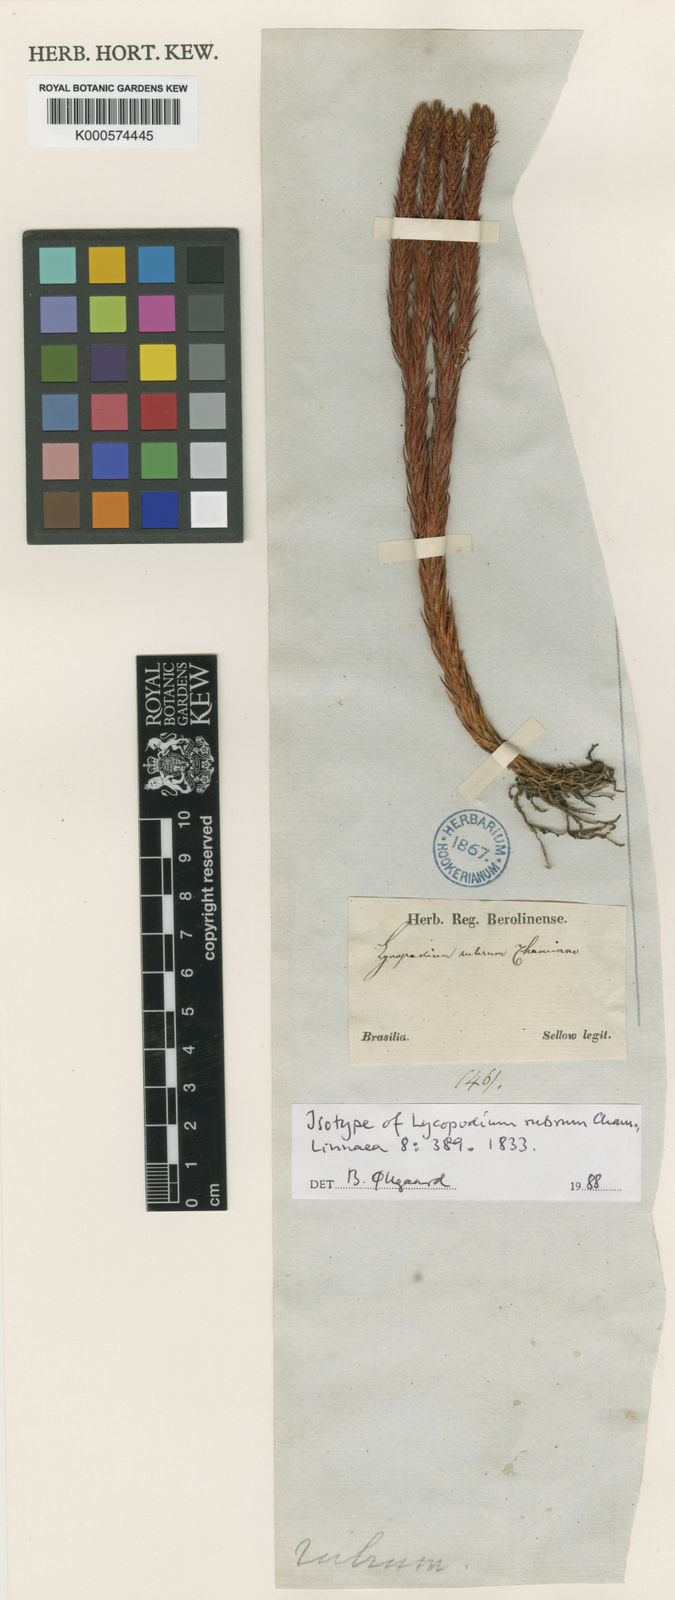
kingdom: Plantae
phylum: Tracheophyta
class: Lycopodiopsida
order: Lycopodiales
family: Lycopodiaceae
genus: Phlegmariurus
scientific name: Phlegmariurus ruber
